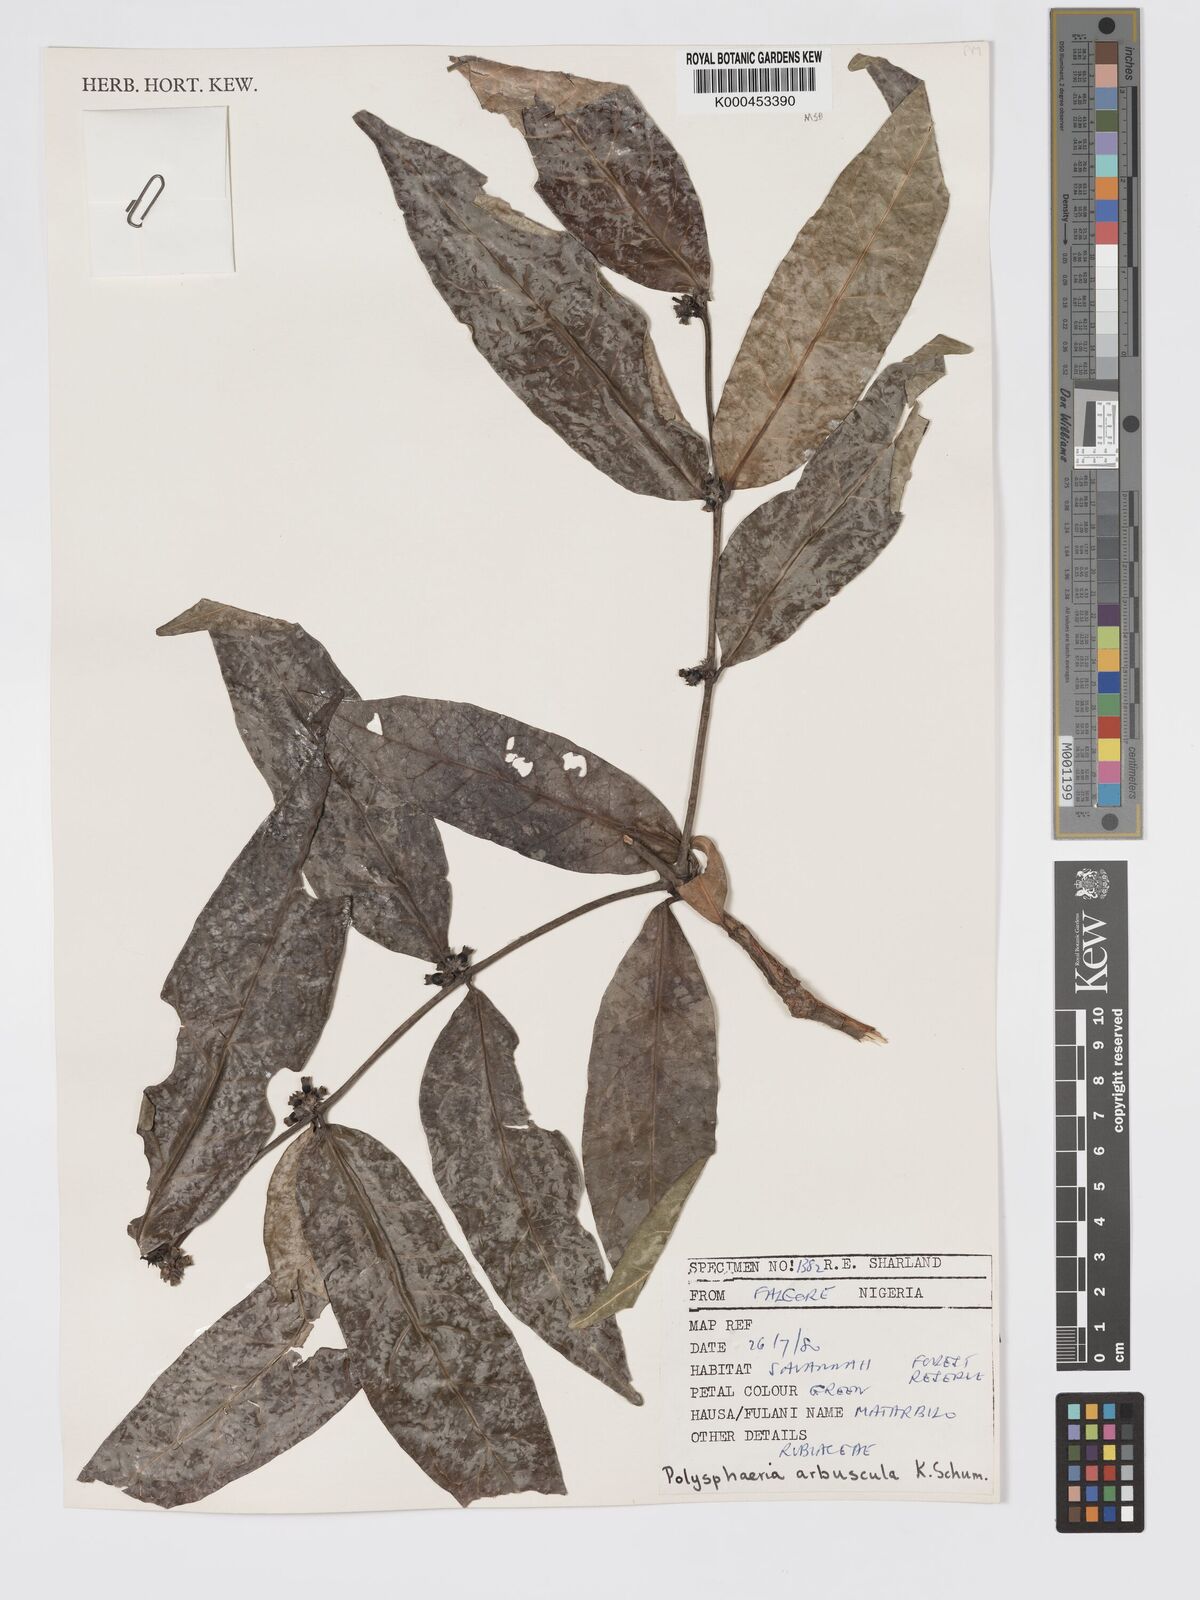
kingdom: Plantae
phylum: Tracheophyta
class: Magnoliopsida
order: Gentianales
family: Rubiaceae
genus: Polysphaeria
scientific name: Polysphaeria arbuscula
